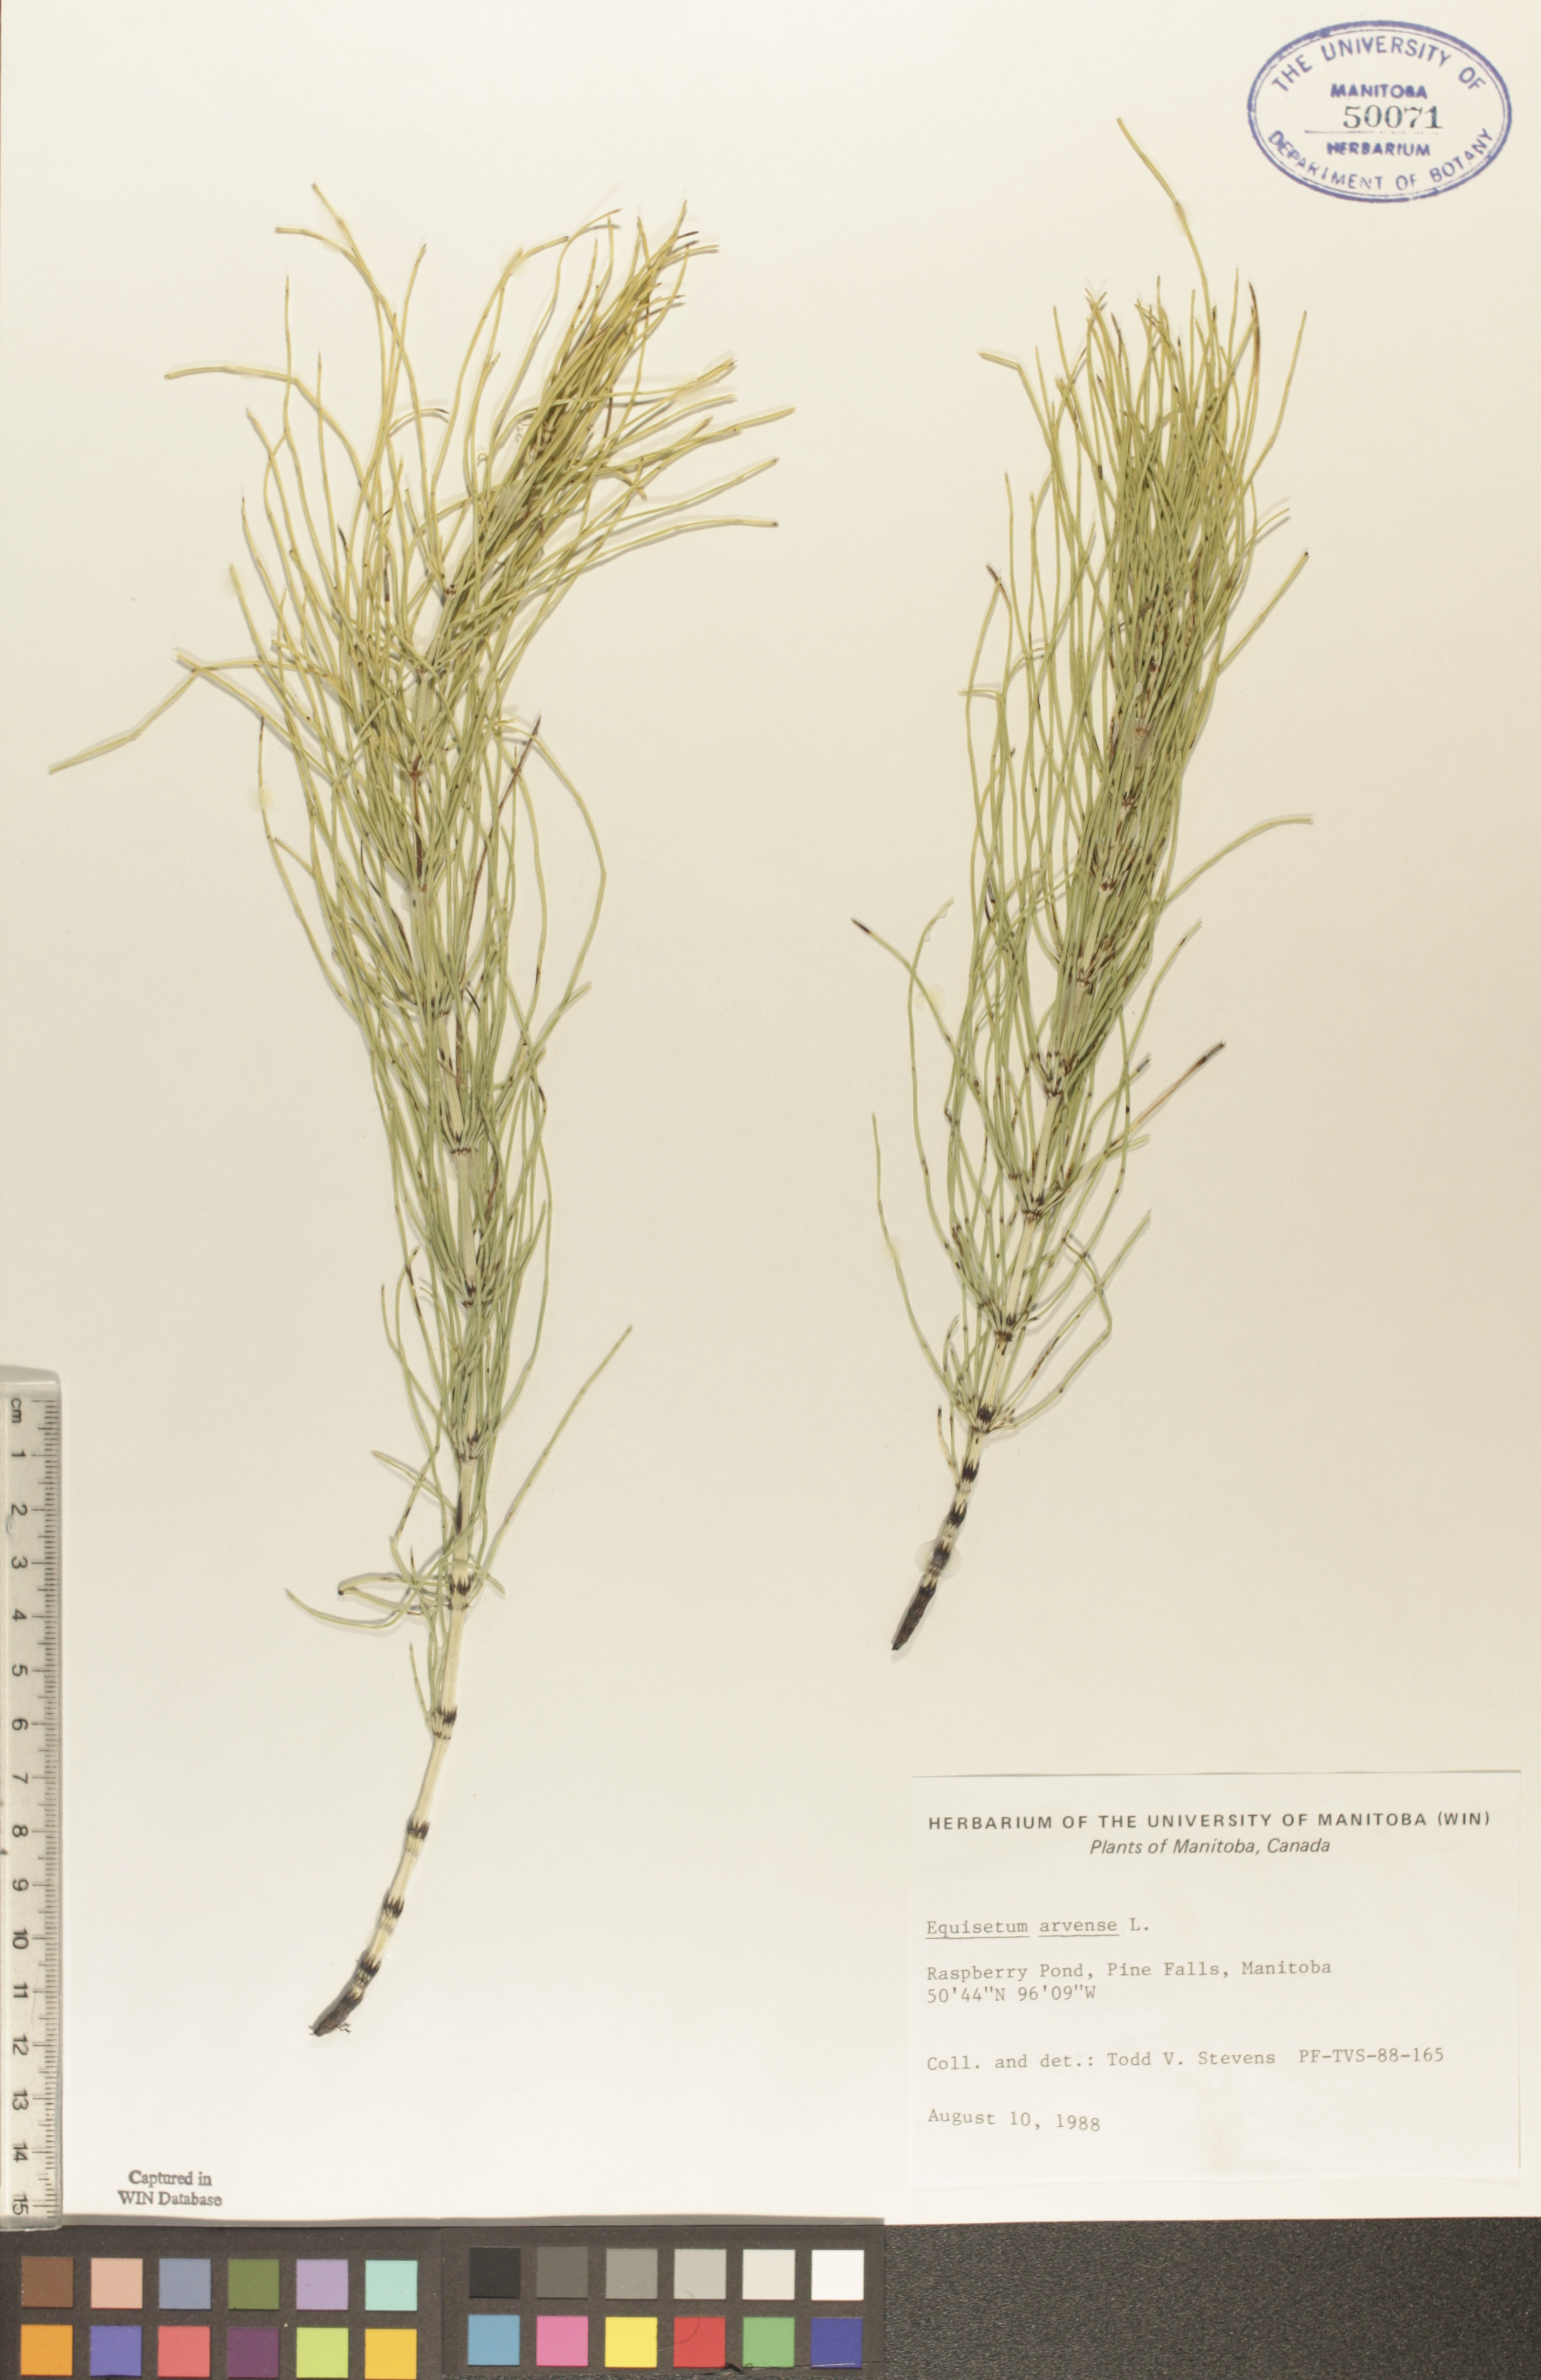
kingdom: Plantae
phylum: Tracheophyta
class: Polypodiopsida
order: Equisetales
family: Equisetaceae
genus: Equisetum
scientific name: Equisetum arvense
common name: Field horsetail
